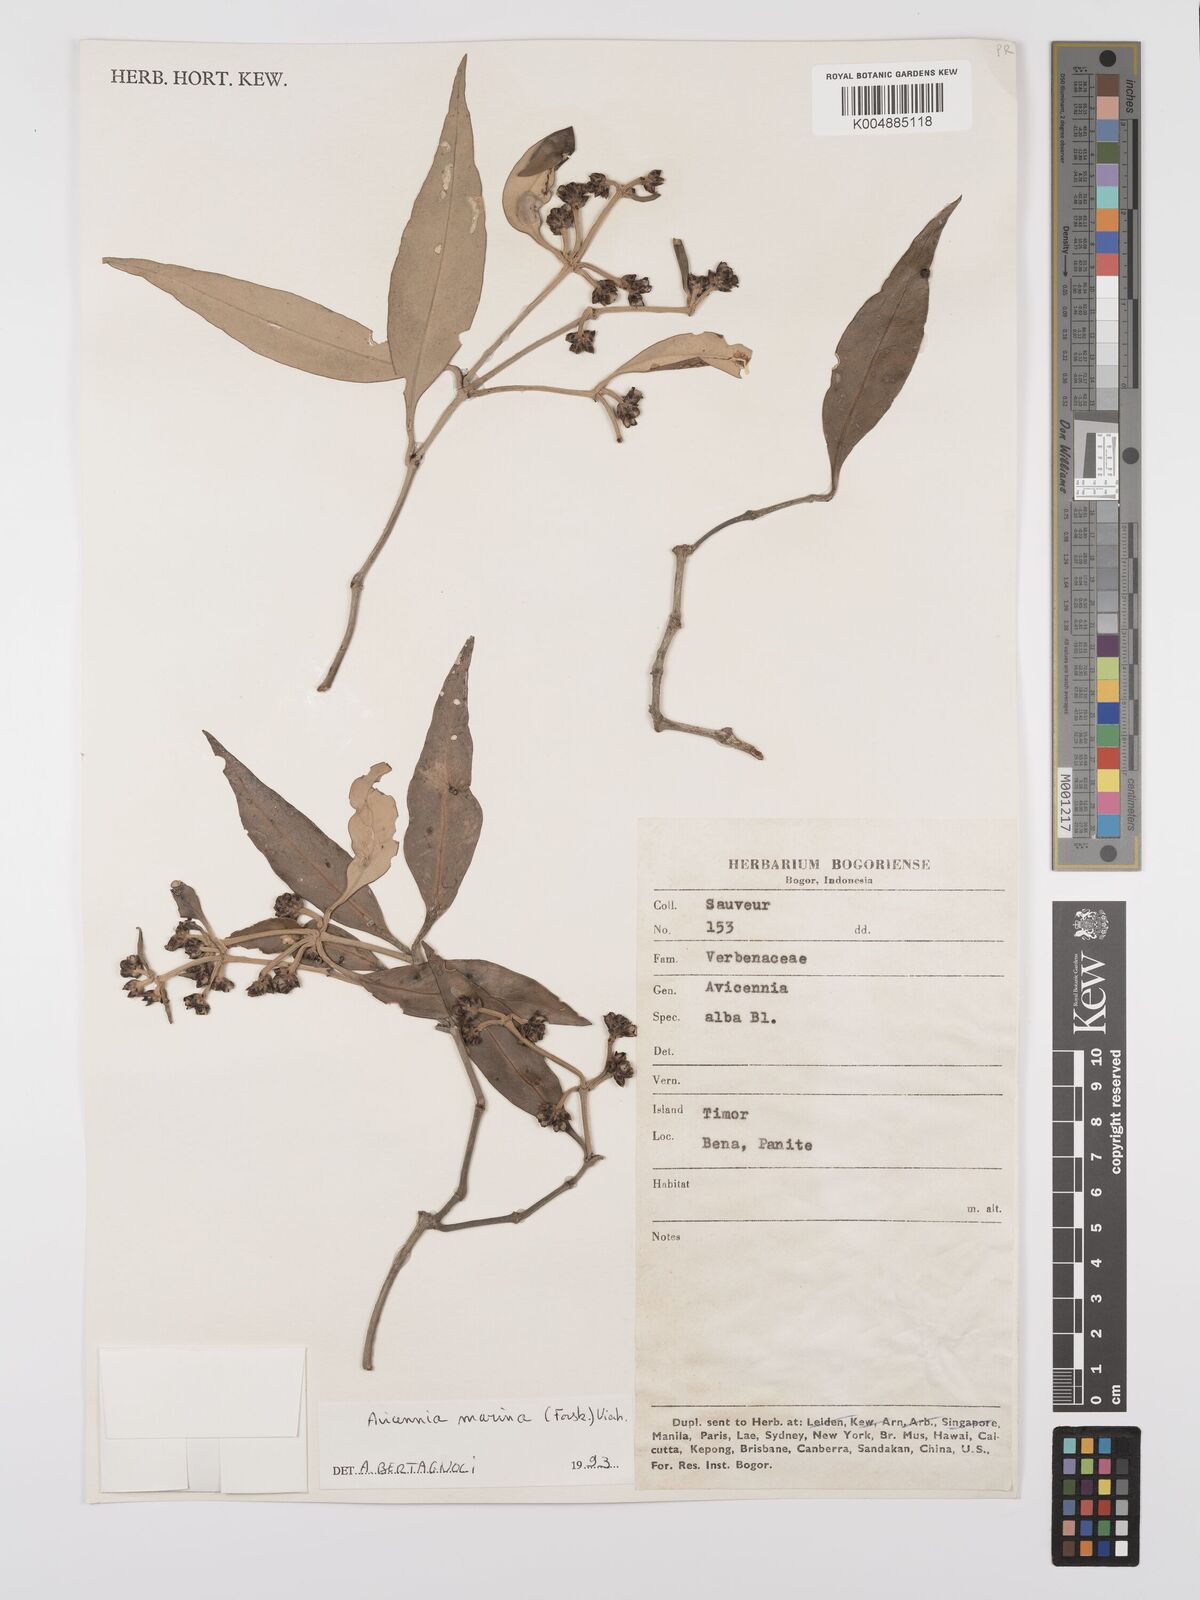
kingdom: Plantae
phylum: Tracheophyta
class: Magnoliopsida
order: Lamiales
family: Acanthaceae
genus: Avicennia
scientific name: Avicennia marina
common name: Gray mangrove
